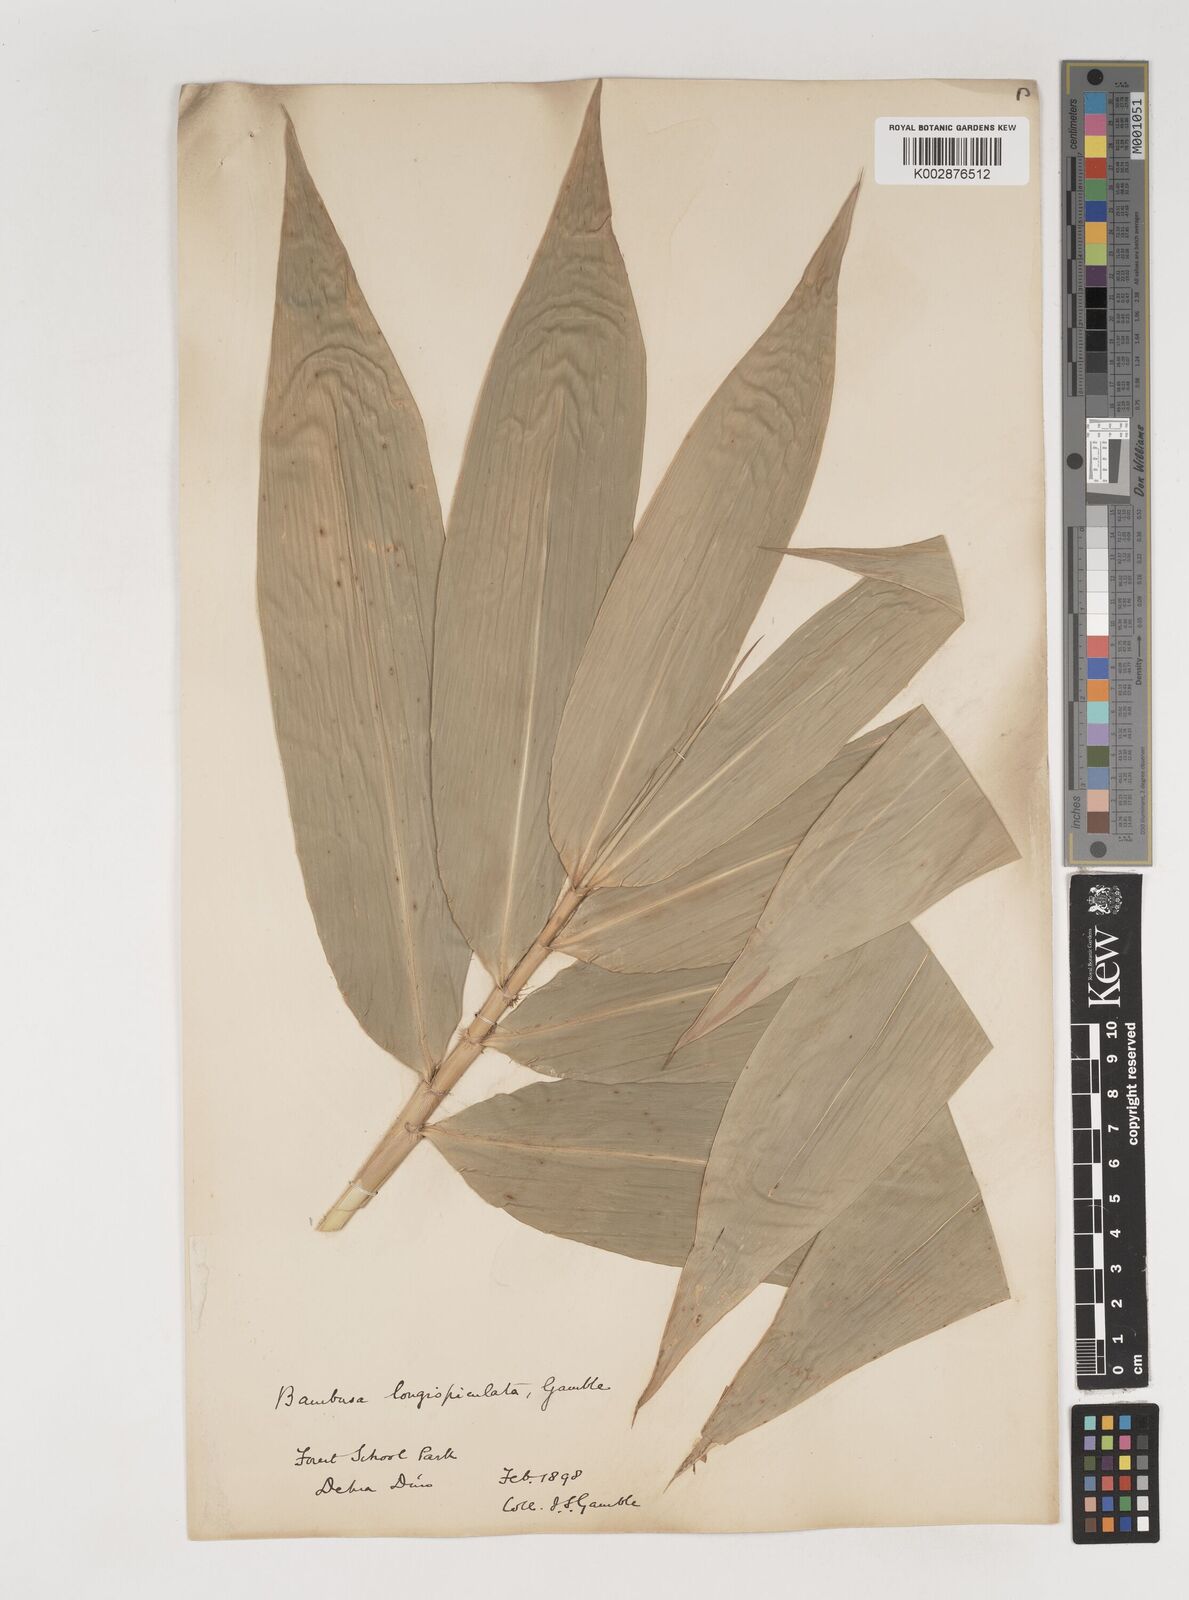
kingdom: Plantae
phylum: Tracheophyta
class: Liliopsida
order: Poales
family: Poaceae
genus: Bambusa
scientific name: Bambusa longispiculata
